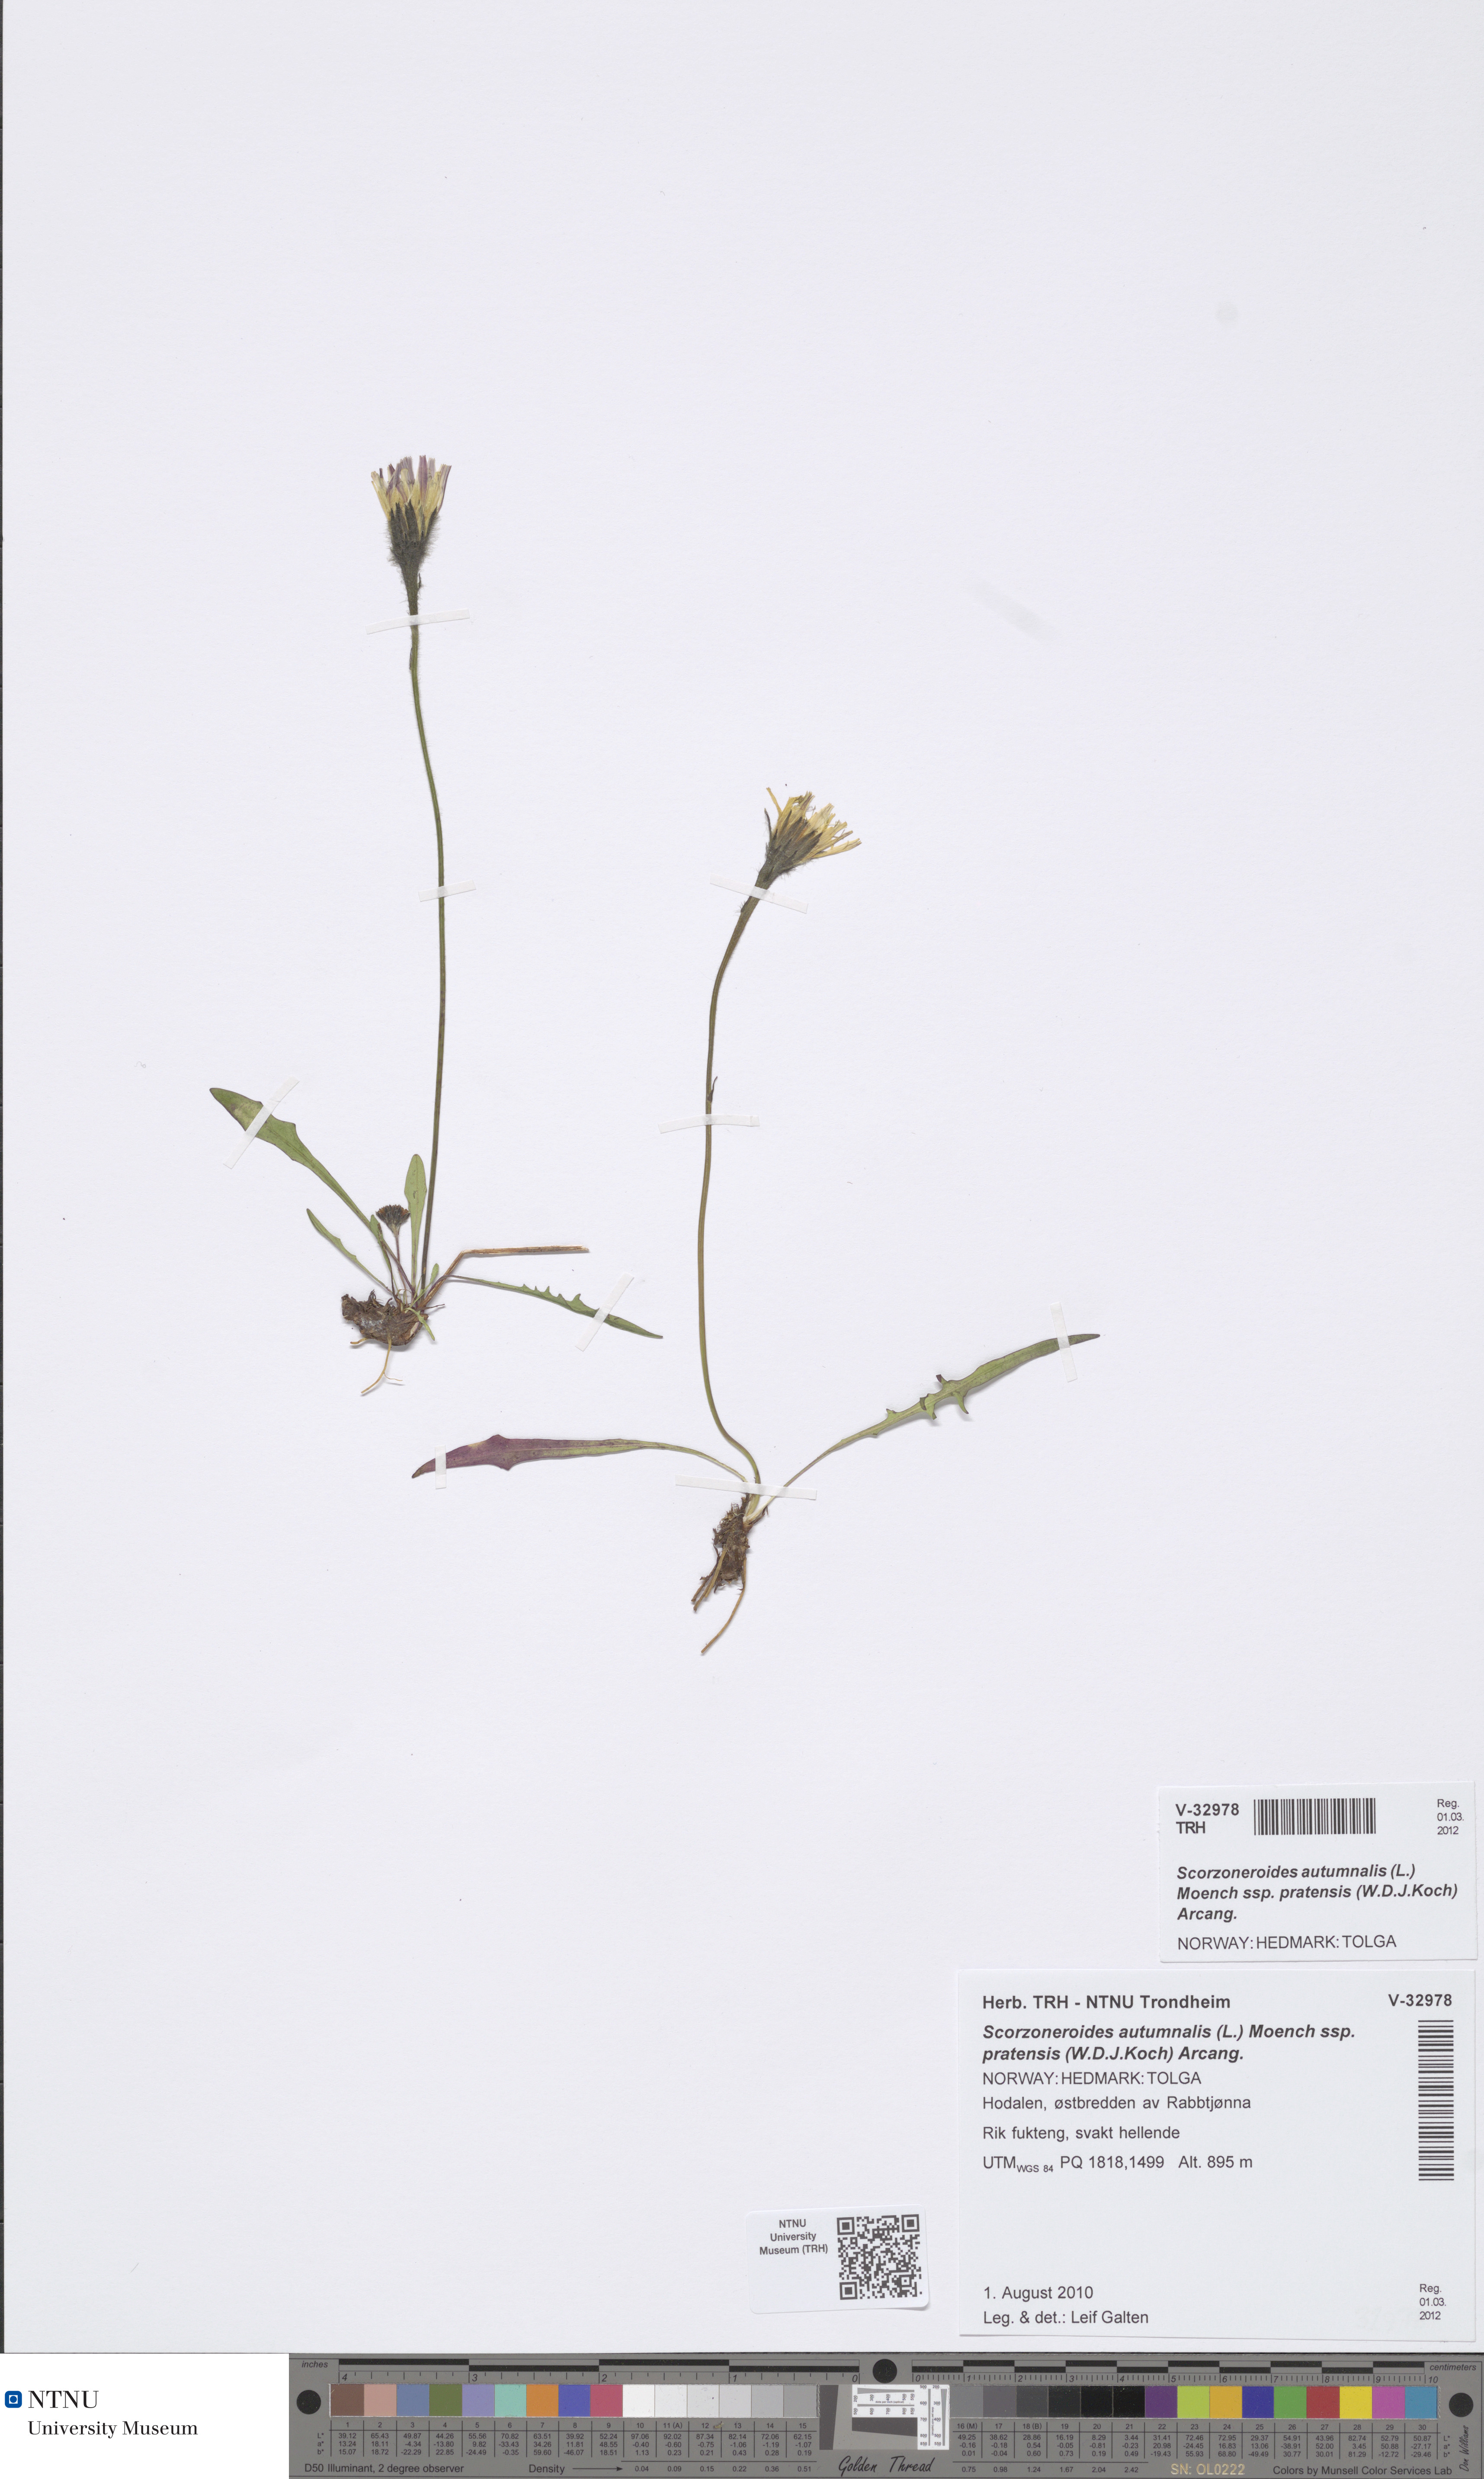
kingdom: Plantae
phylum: Tracheophyta
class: Magnoliopsida
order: Asterales
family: Asteraceae
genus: Scorzoneroides
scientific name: Scorzoneroides autumnalis
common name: Autumn hawkbit
